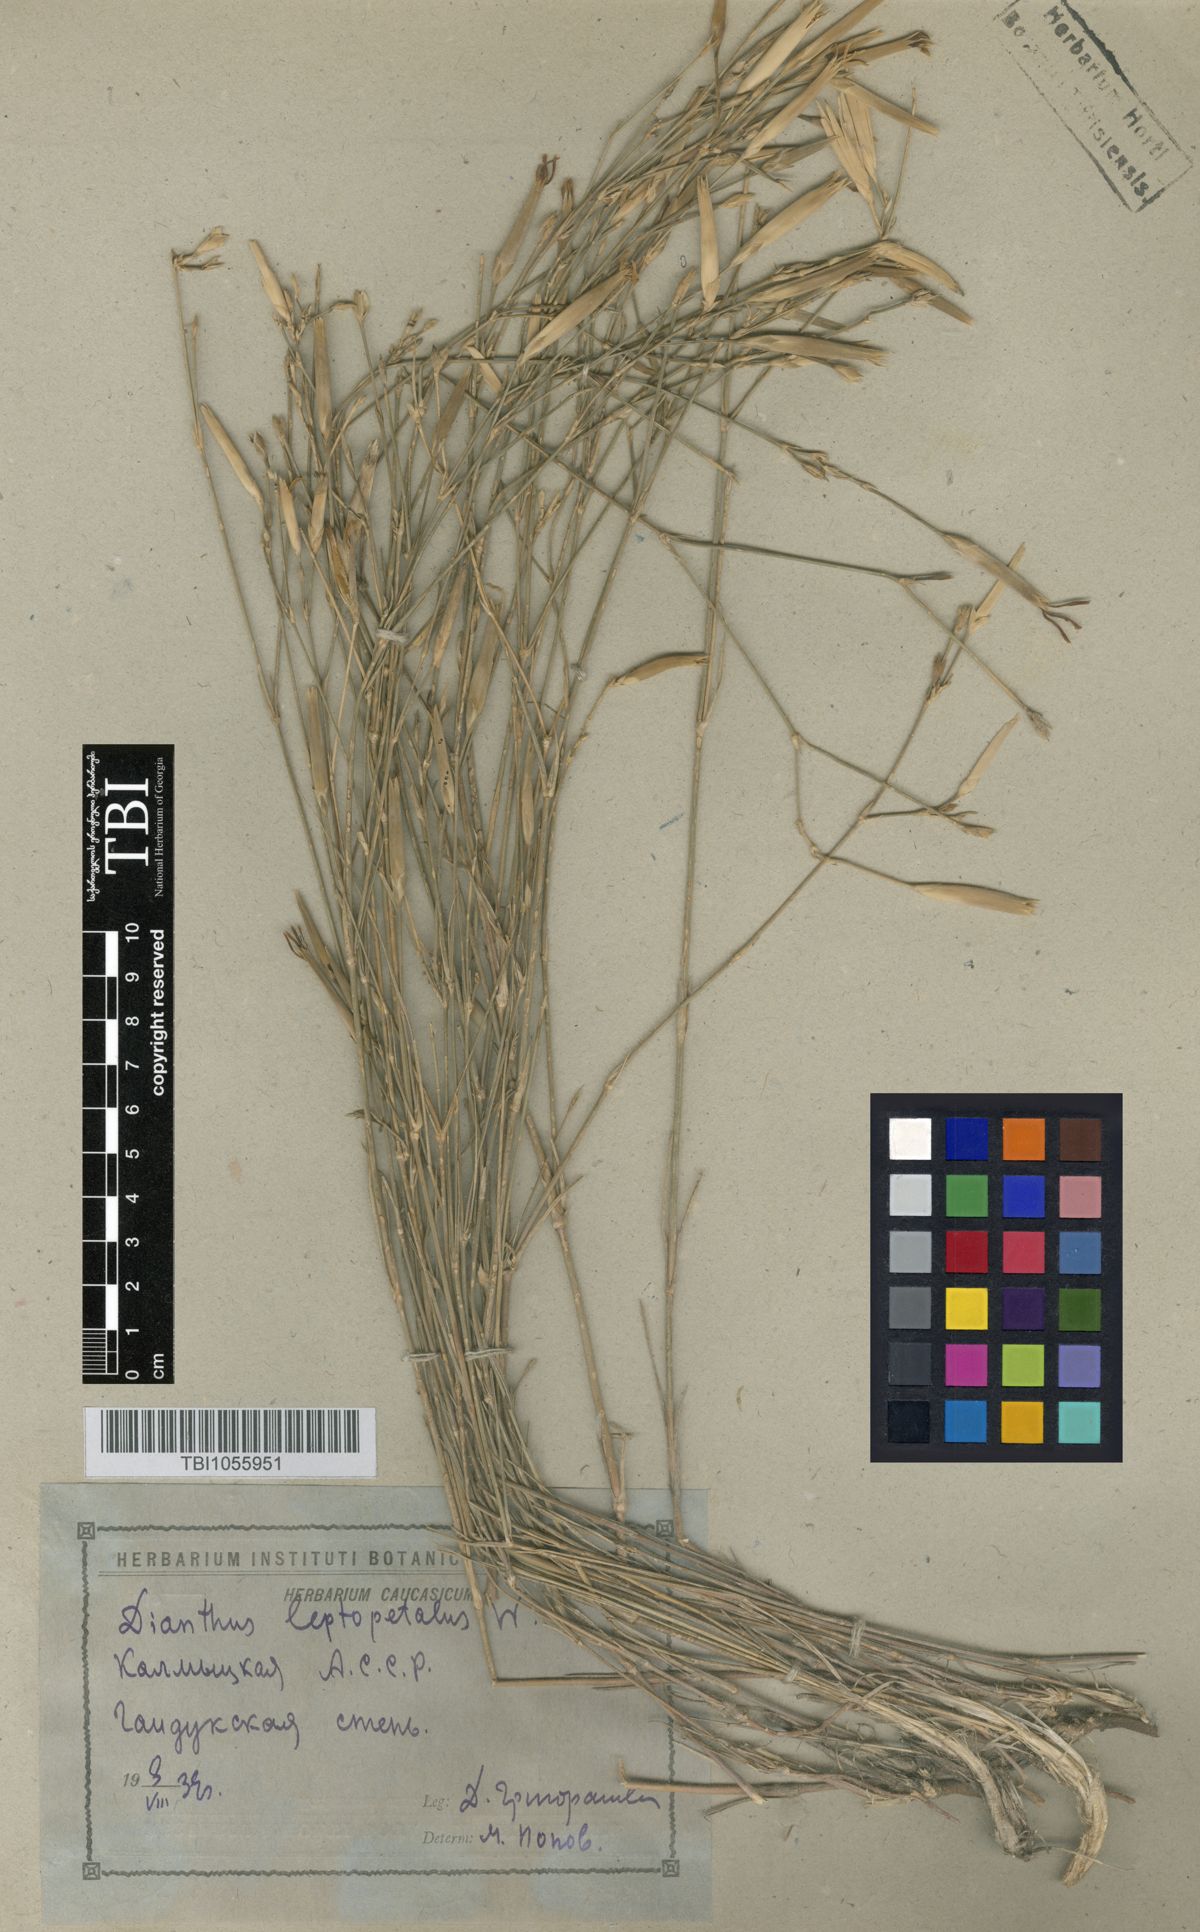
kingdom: Plantae
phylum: Tracheophyta
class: Magnoliopsida
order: Caryophyllales
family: Caryophyllaceae
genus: Dianthus
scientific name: Dianthus leptopetalus
